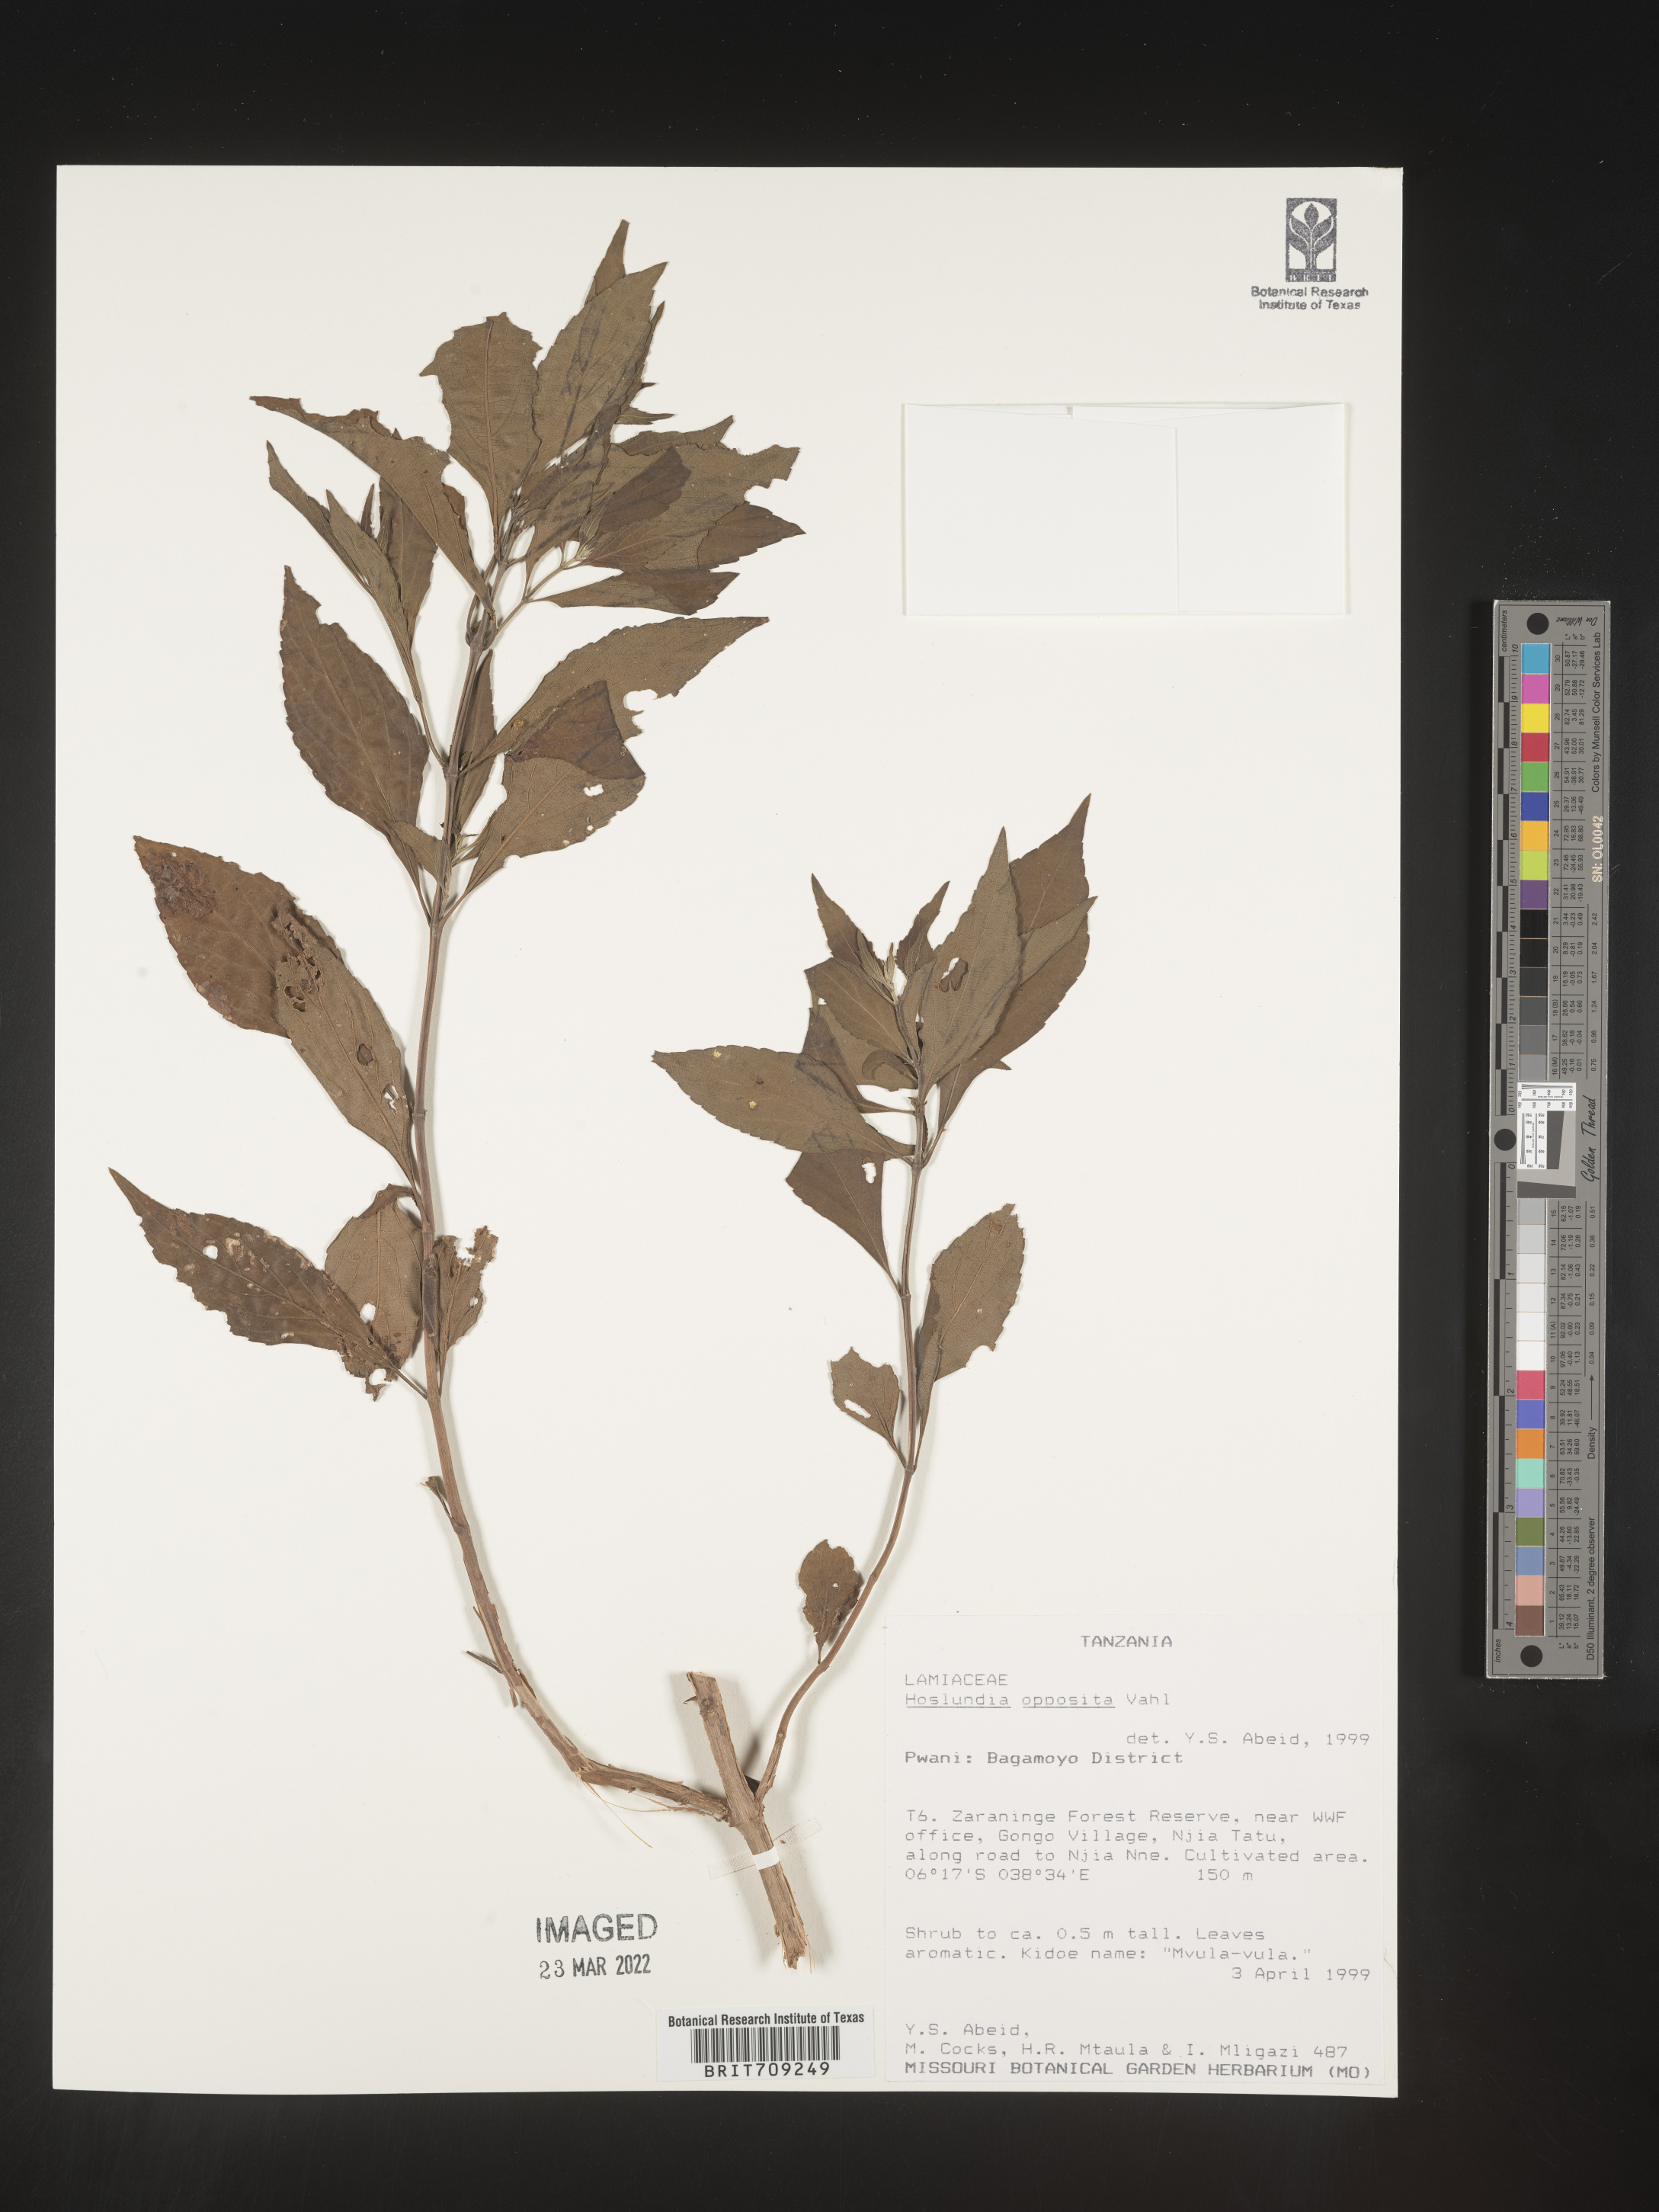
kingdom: Plantae
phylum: Tracheophyta
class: Magnoliopsida
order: Lamiales
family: Lamiaceae
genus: Hoslundia
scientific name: Hoslundia opposita
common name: Kamyuye
